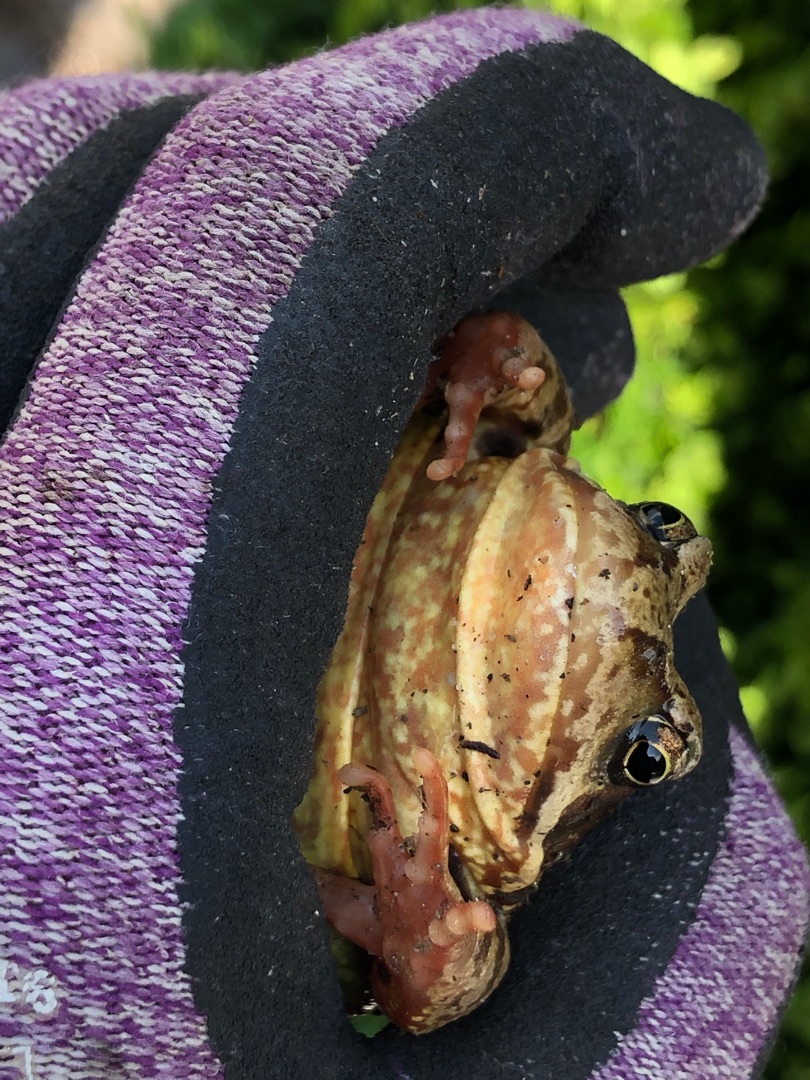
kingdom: Animalia
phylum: Chordata
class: Amphibia
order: Anura
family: Ranidae
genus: Rana
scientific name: Rana temporaria
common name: Butsnudet frø
